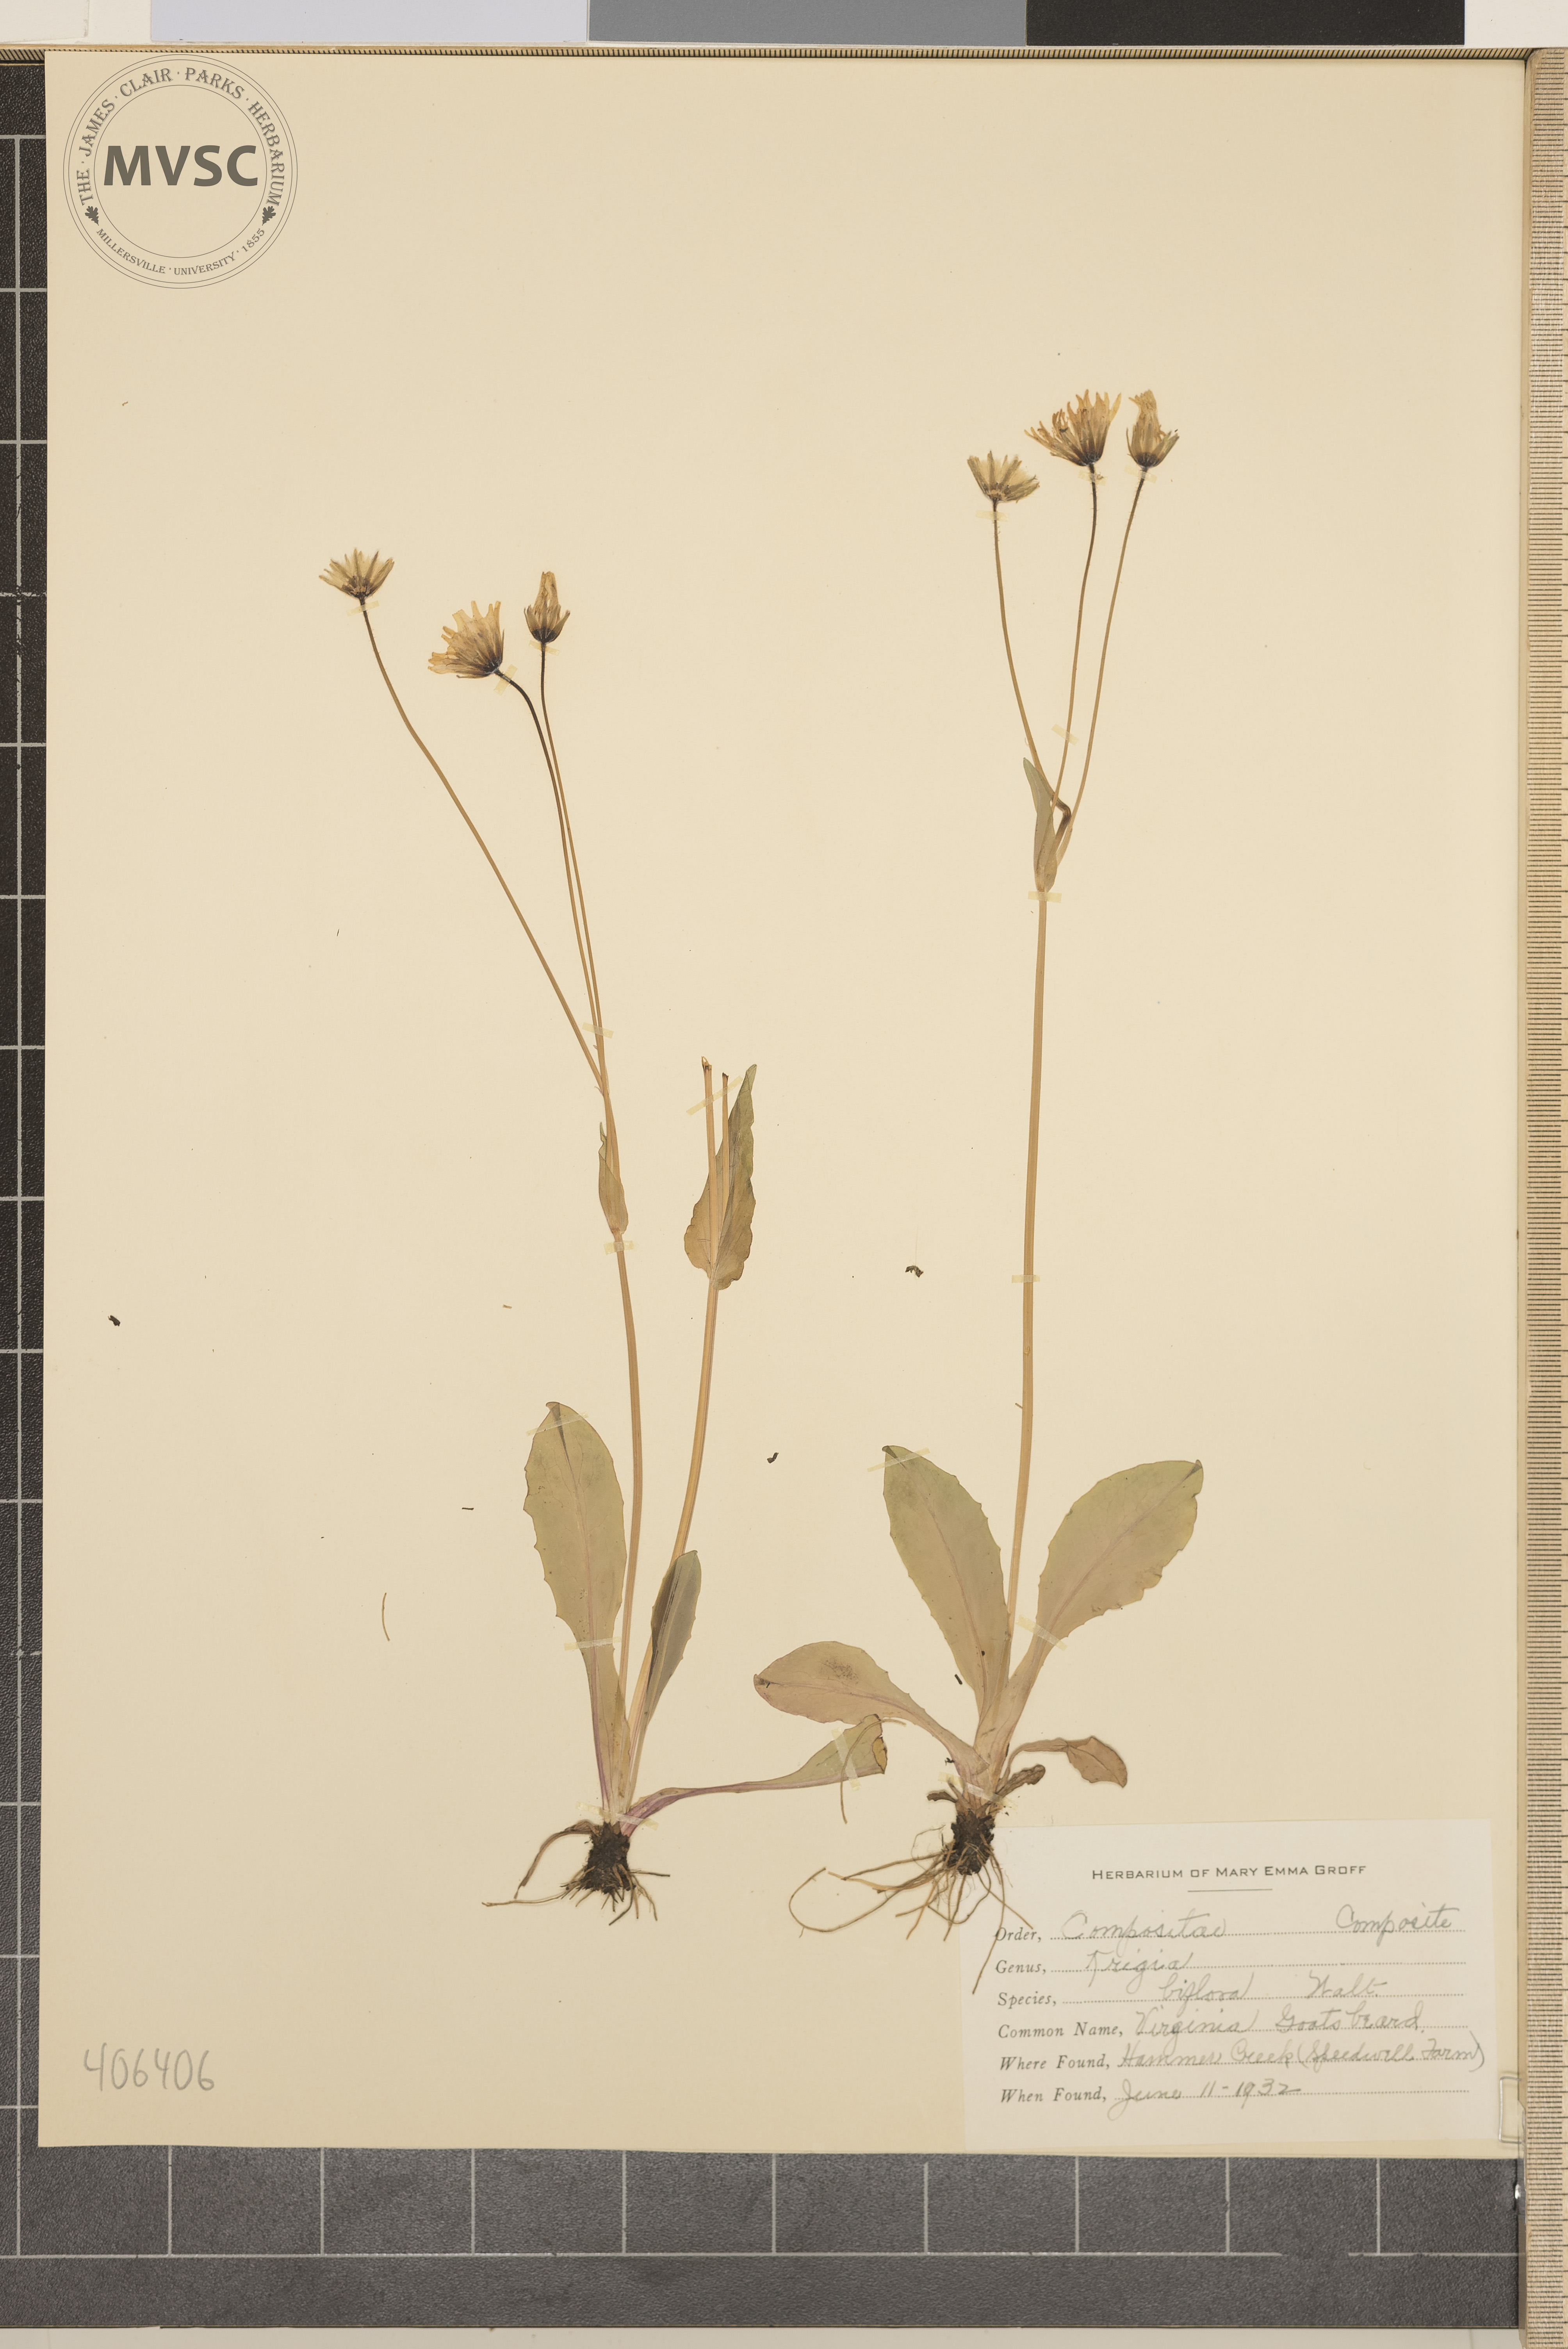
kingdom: Plantae
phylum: Tracheophyta
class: Magnoliopsida
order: Asterales
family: Asteraceae
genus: Krigia
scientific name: Krigia biflora
